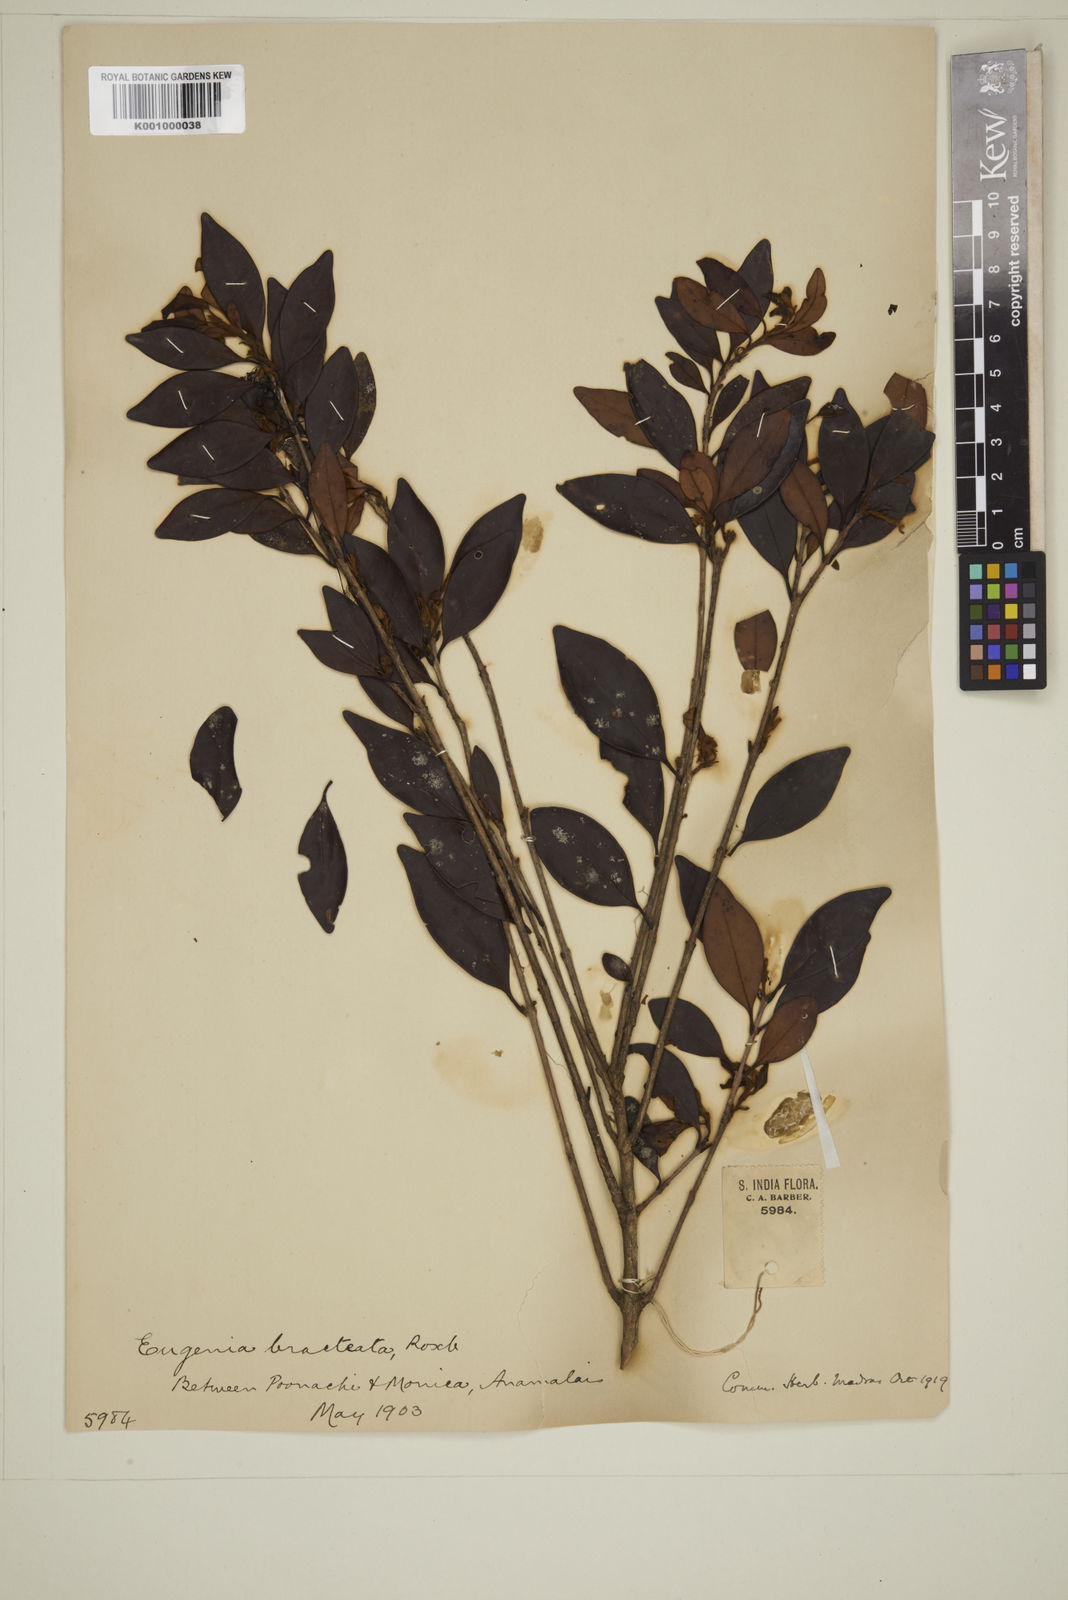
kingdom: Plantae
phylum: Tracheophyta
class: Magnoliopsida
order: Myrtales
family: Myrtaceae
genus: Myrcia
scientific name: Myrcia bracteata
